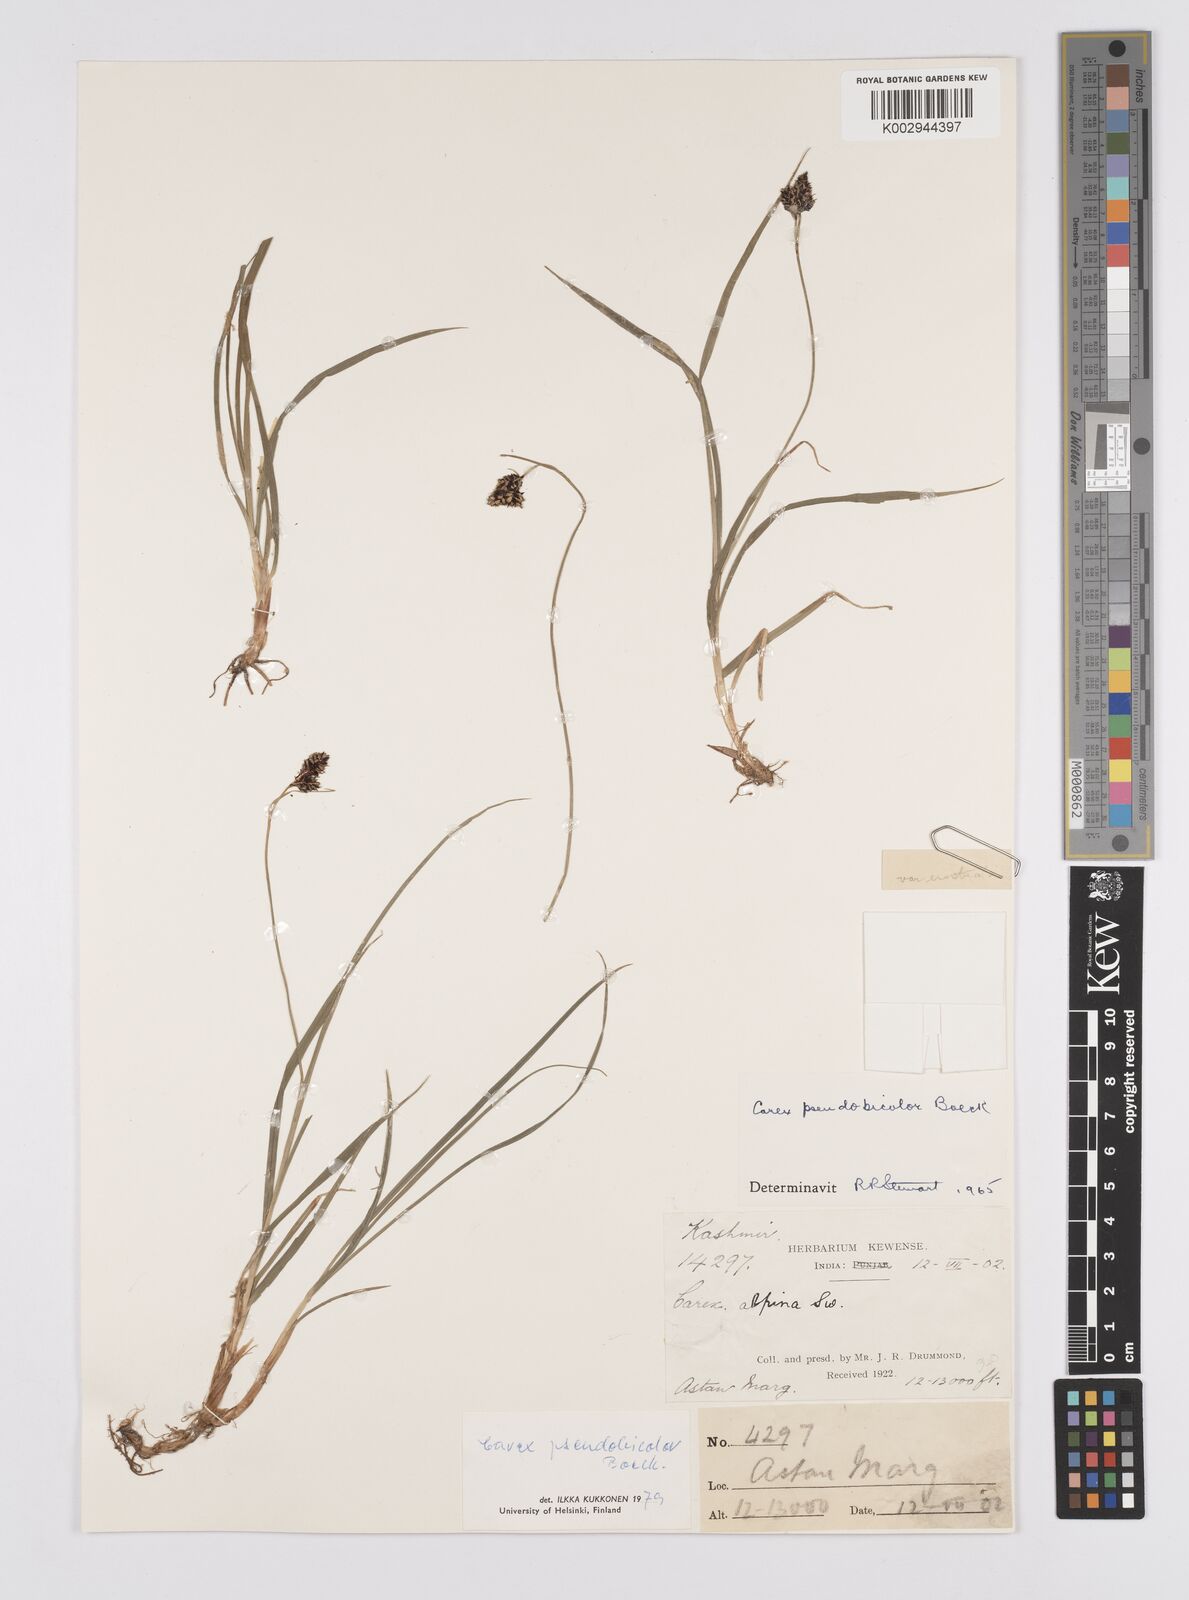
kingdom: Plantae
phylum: Tracheophyta
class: Liliopsida
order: Poales
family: Cyperaceae
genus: Carex
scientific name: Carex norvegica
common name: Close-headed alpine-sedge
